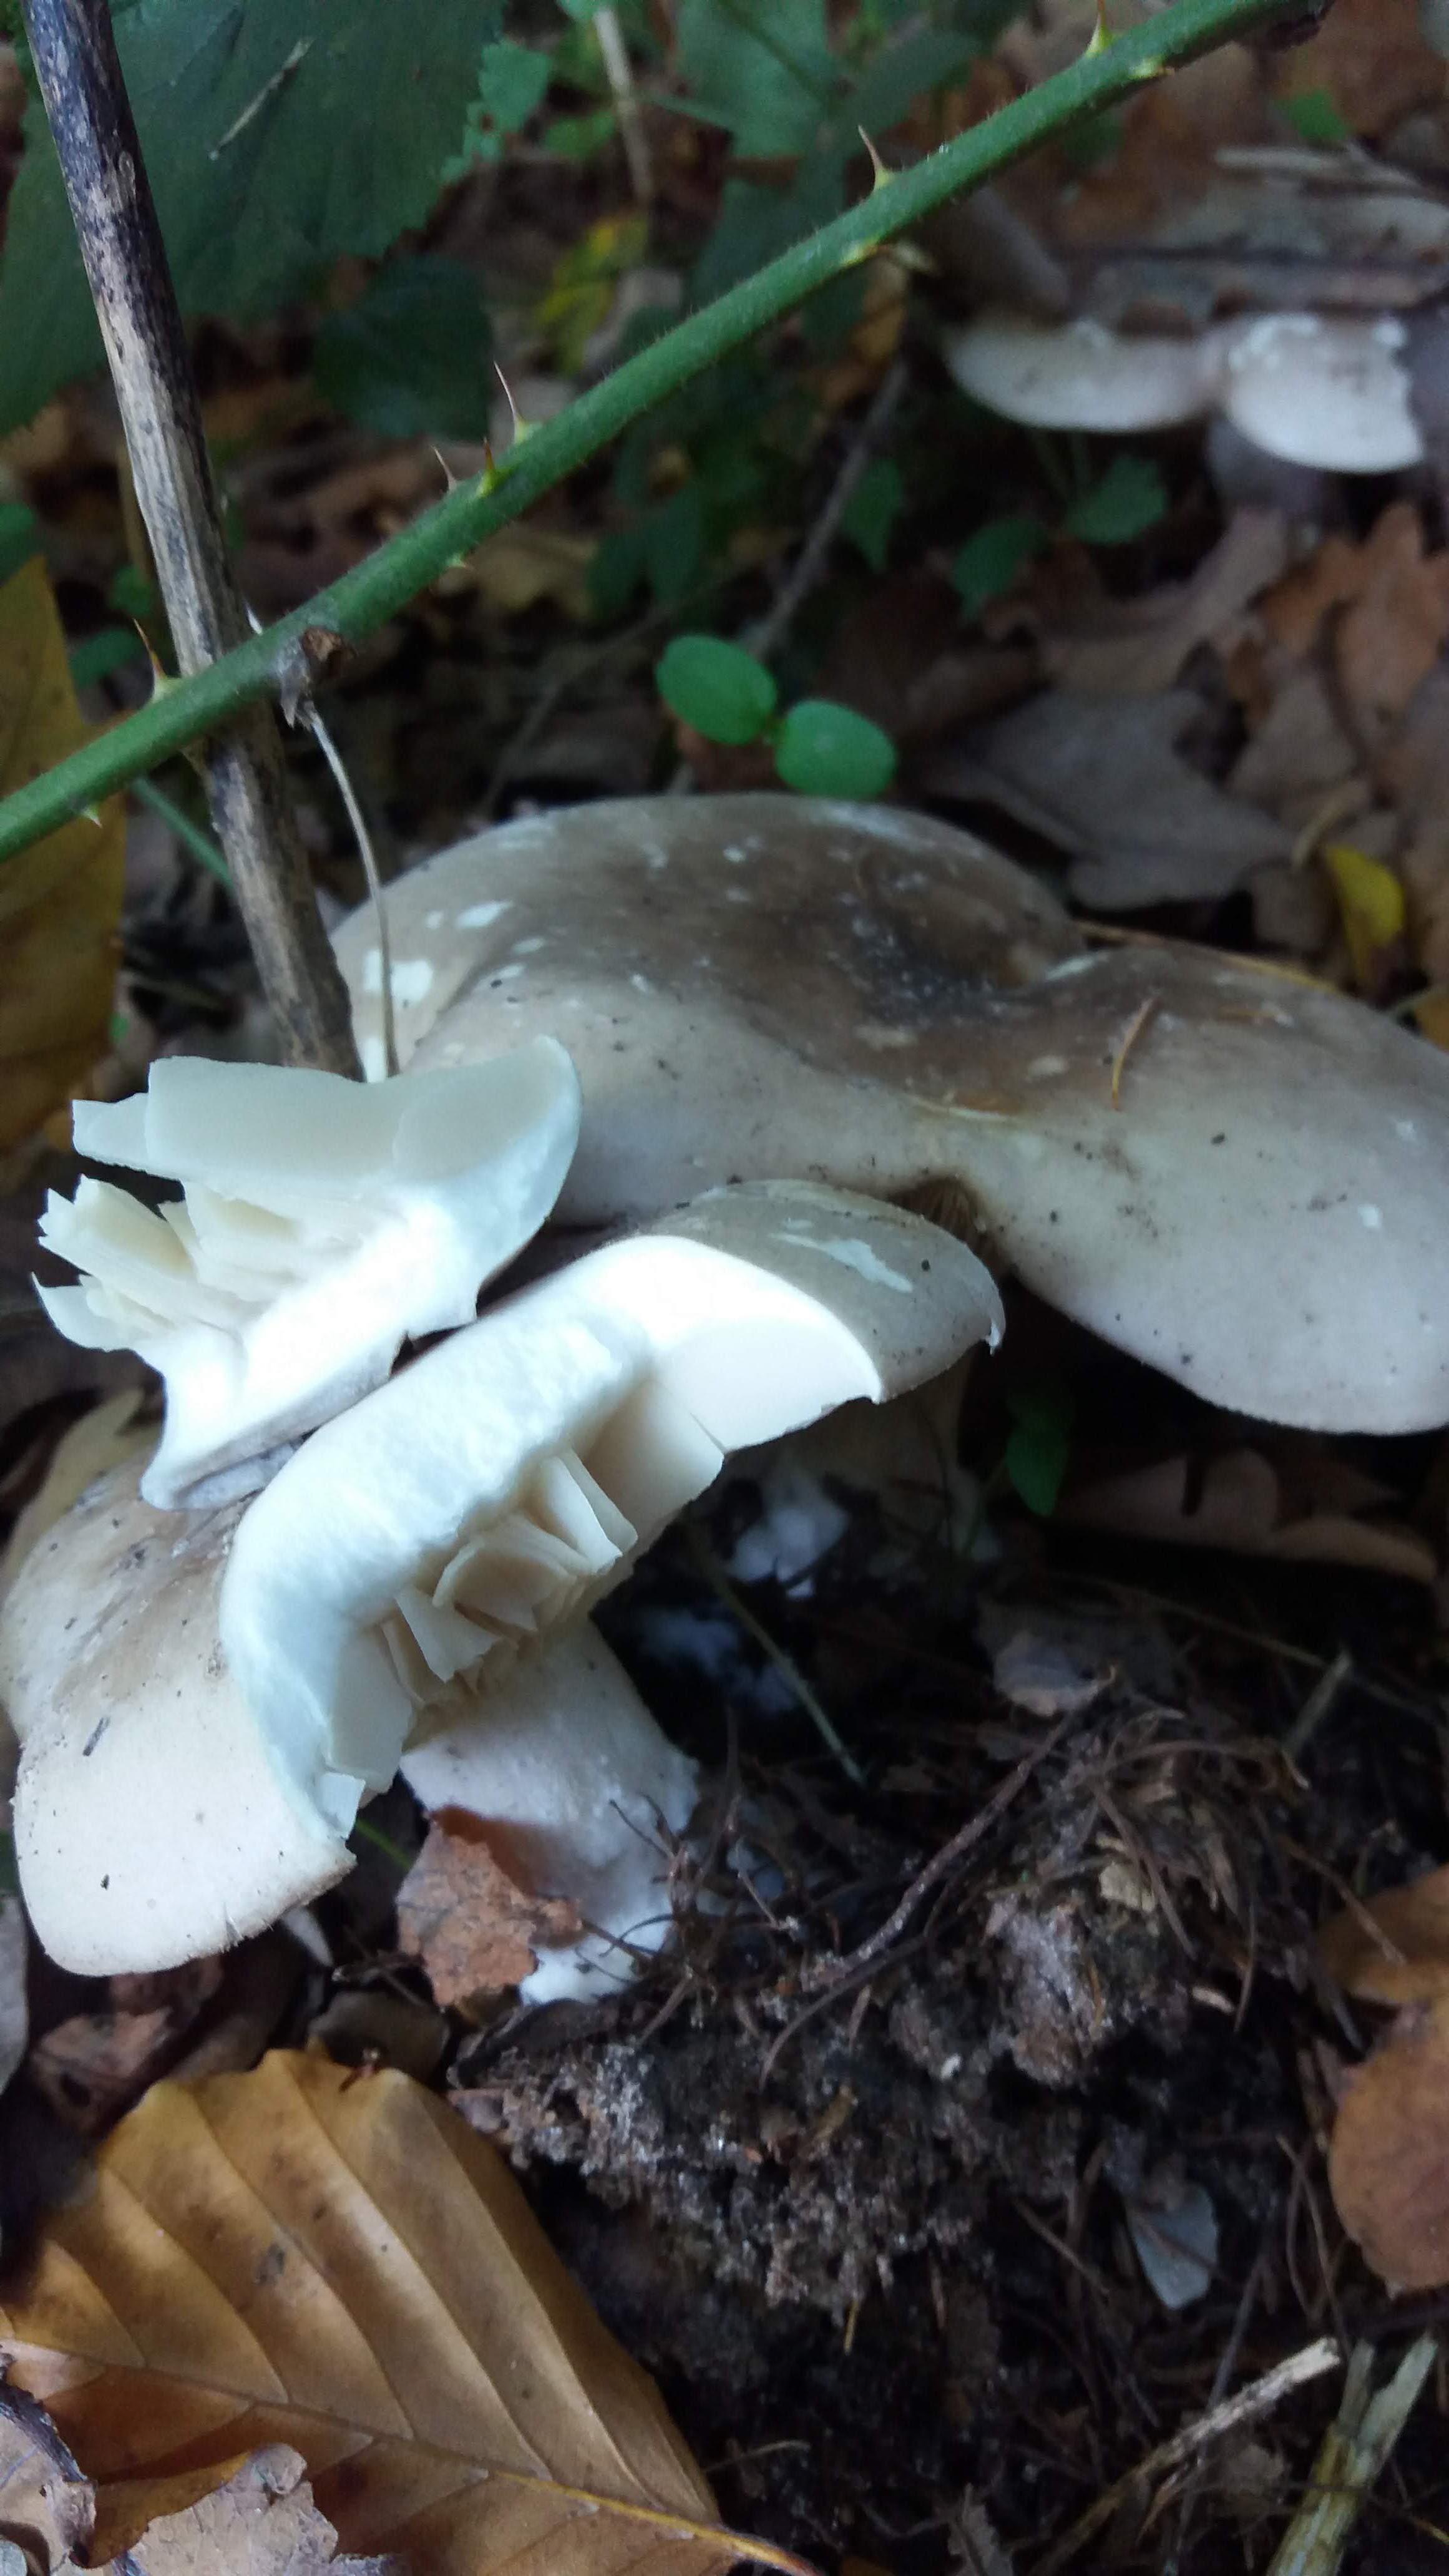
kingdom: Fungi
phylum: Basidiomycota
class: Agaricomycetes
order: Agaricales
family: Tricholomataceae
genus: Clitocybe
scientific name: Clitocybe nebularis
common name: tåge-tragthat
